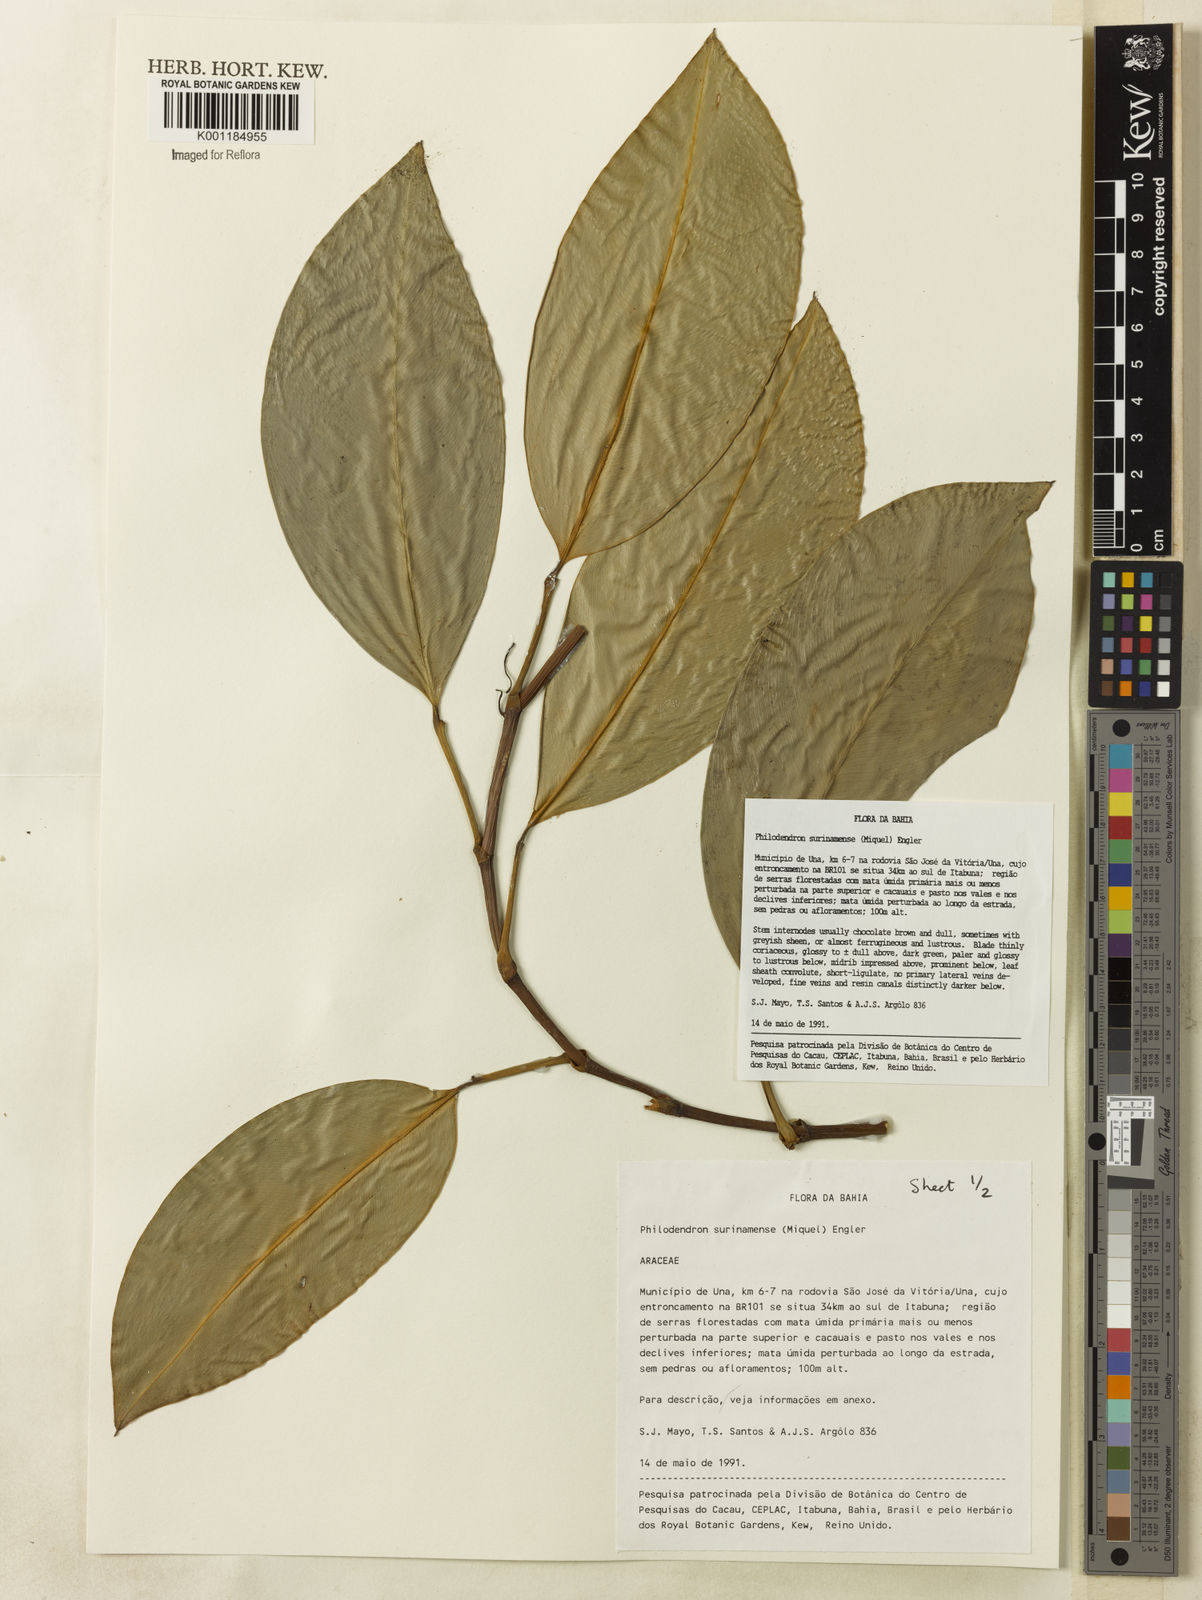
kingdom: Plantae
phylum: Tracheophyta
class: Liliopsida
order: Alismatales
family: Araceae
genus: Philodendron
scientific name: Philodendron surinamense
